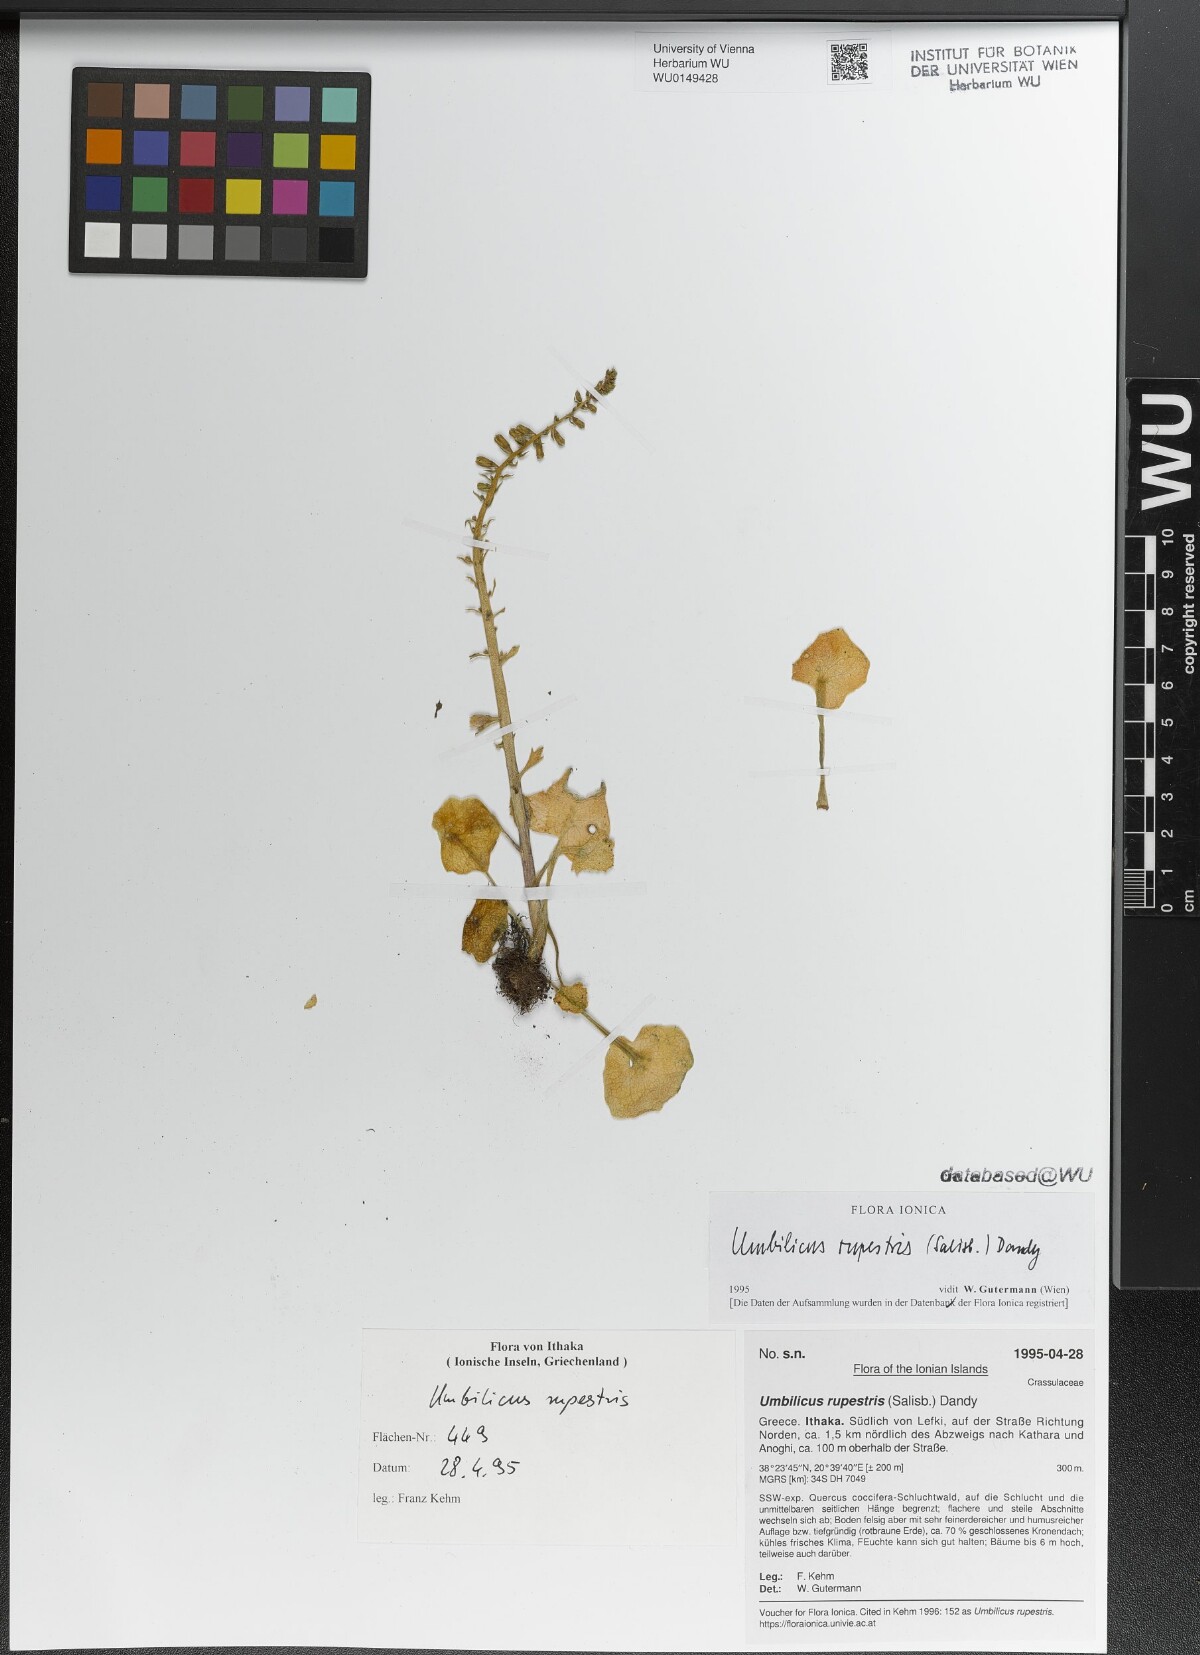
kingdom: Plantae
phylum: Tracheophyta
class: Magnoliopsida
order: Saxifragales
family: Crassulaceae
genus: Umbilicus
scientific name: Umbilicus rupestris
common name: Navelwort
